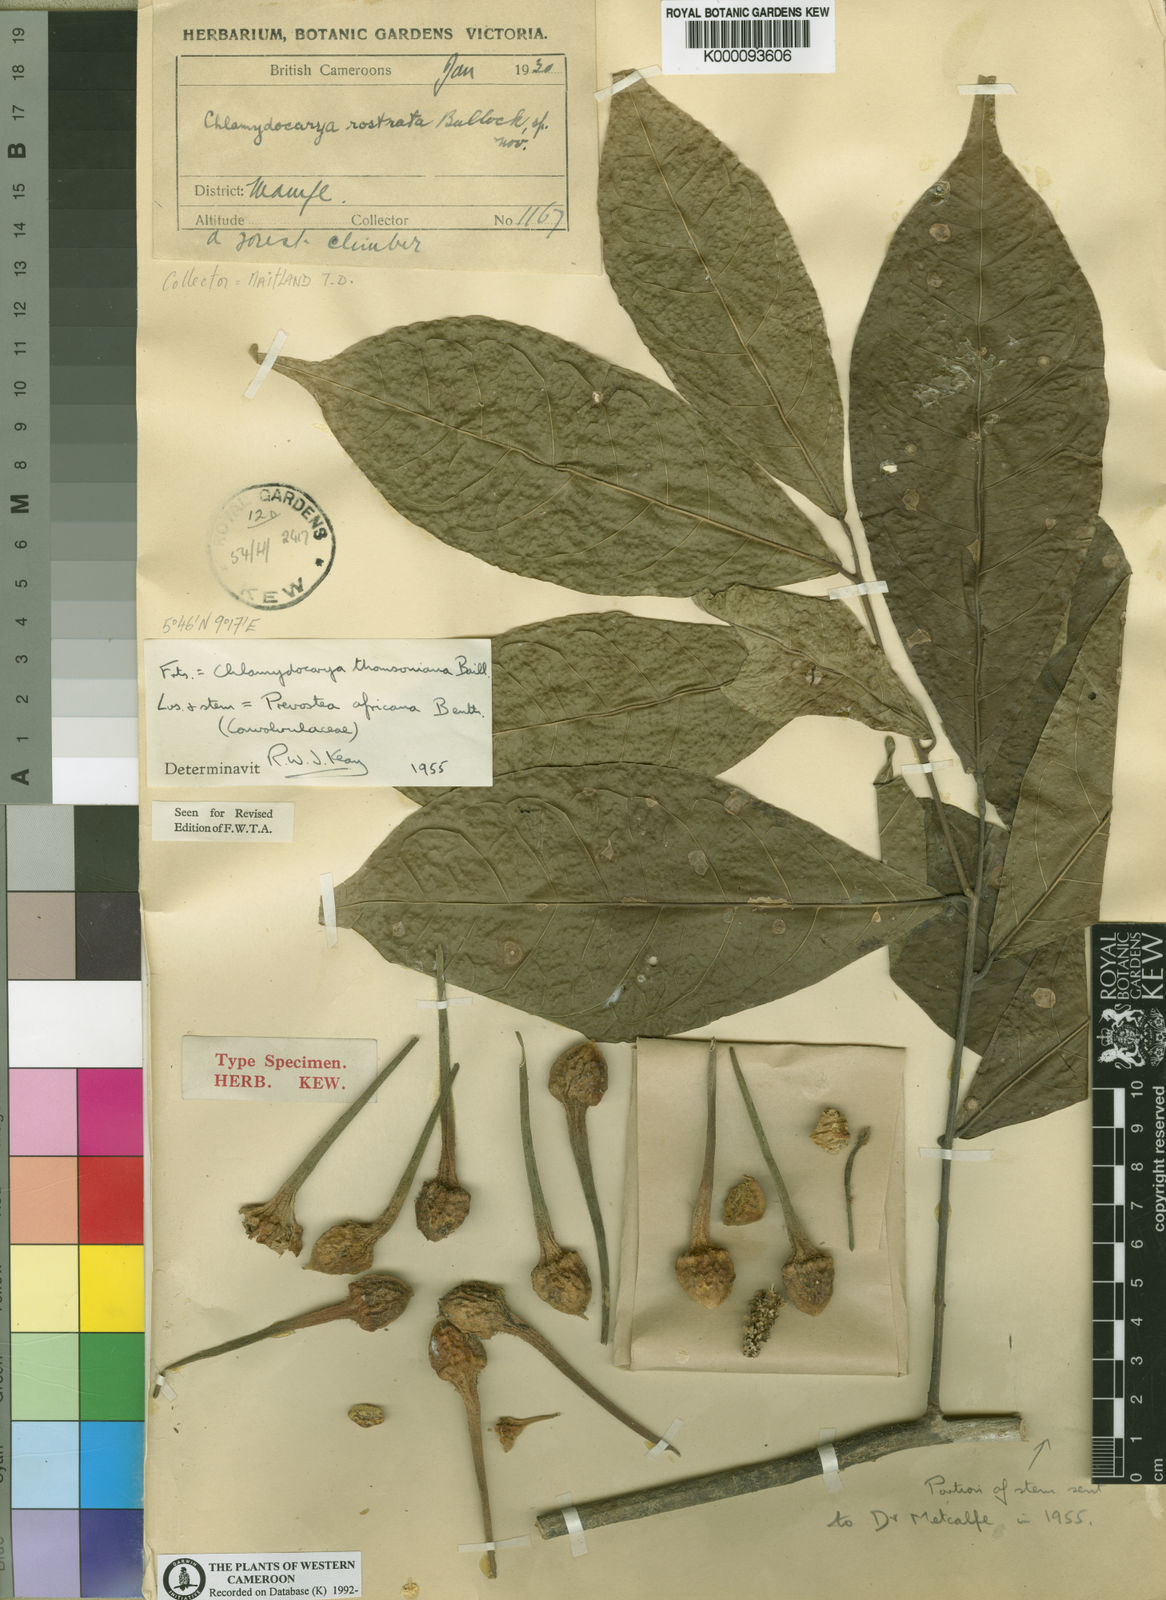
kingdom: Plantae
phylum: Tracheophyta
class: Magnoliopsida
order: Icacinales
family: Icacinaceae
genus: Pyrenacantha
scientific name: Pyrenacantha soyauxii
